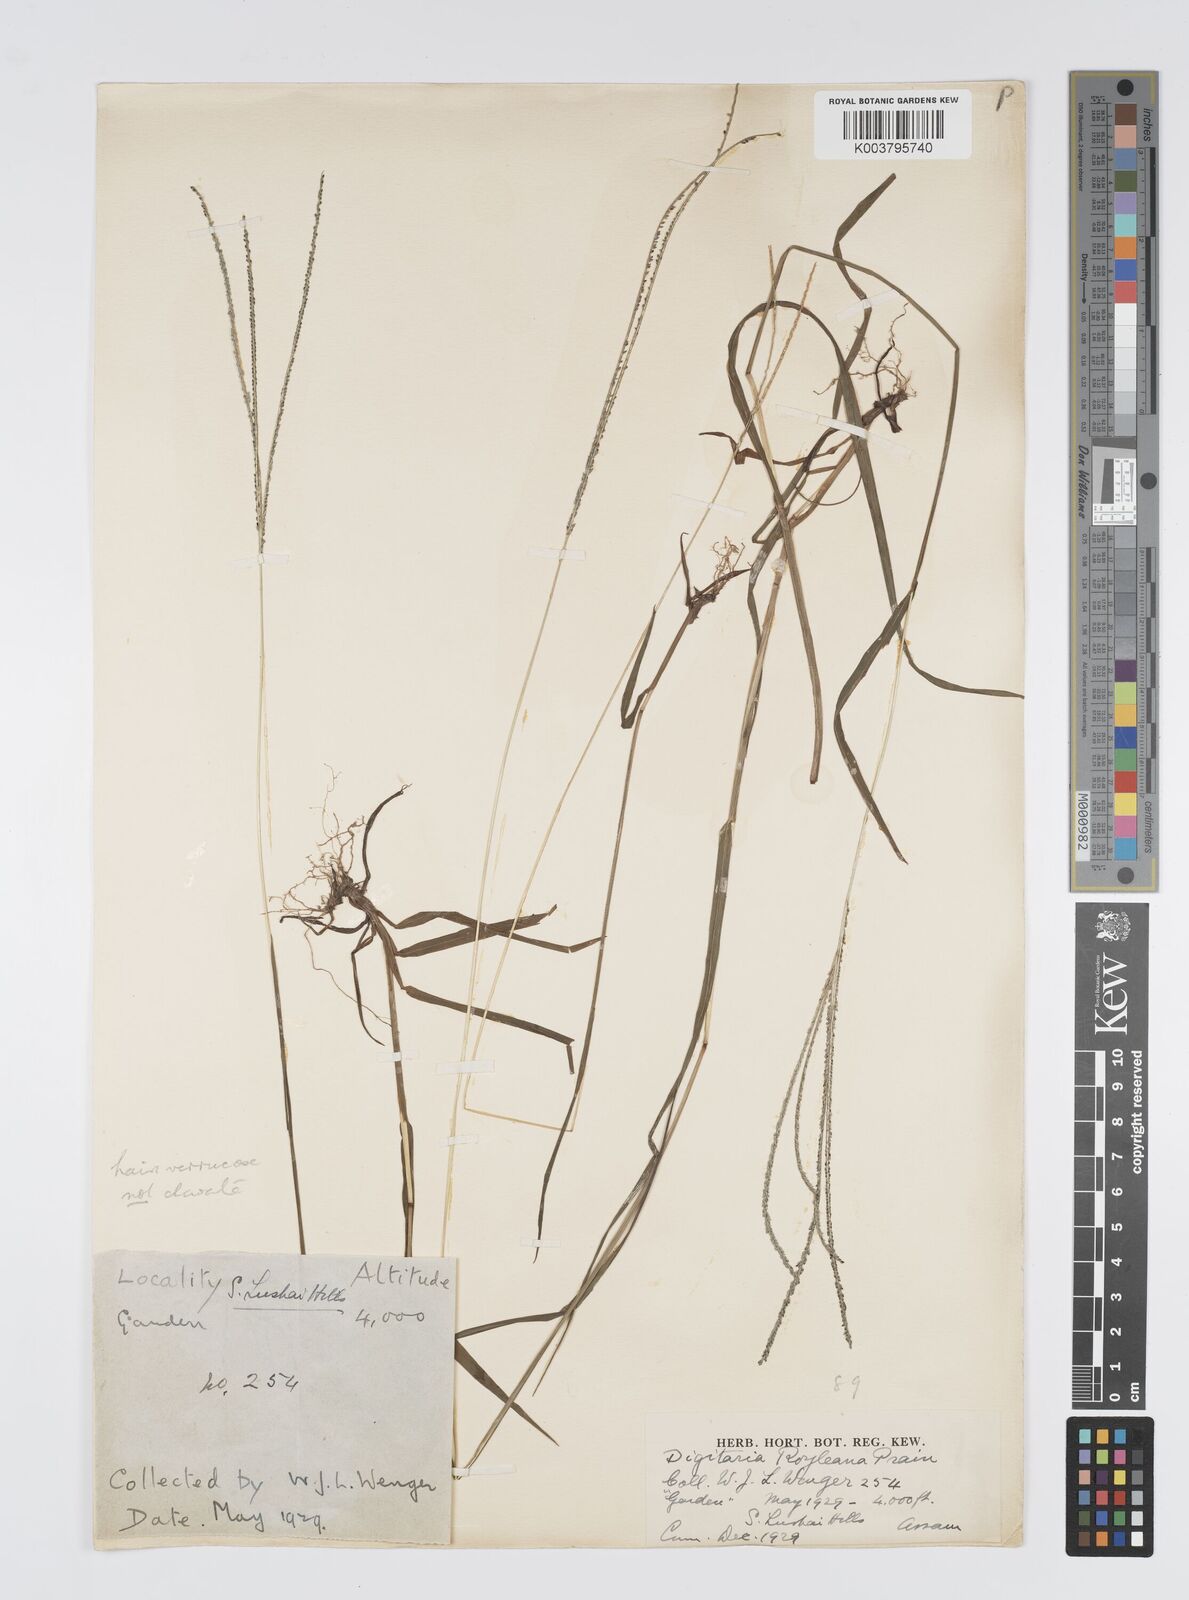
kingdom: Plantae
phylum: Tracheophyta
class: Liliopsida
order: Poales
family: Poaceae
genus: Digitaria
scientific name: Digitaria violascens
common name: Violet crabgrass
